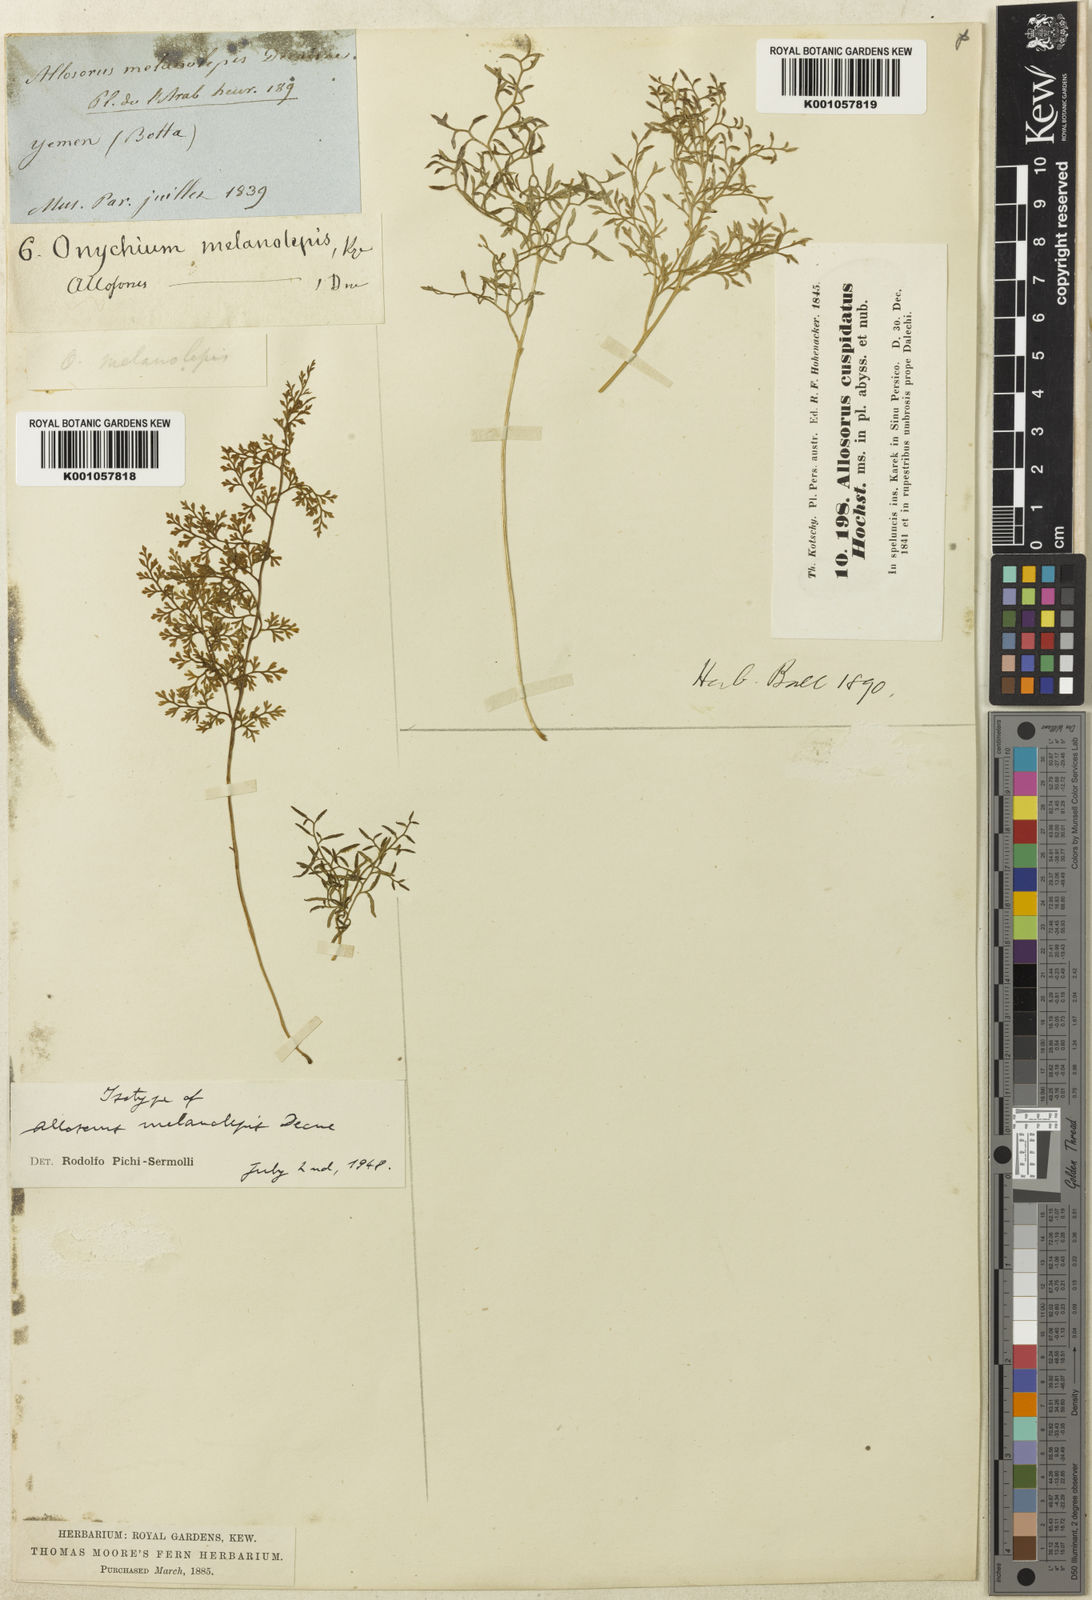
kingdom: Plantae
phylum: Tracheophyta
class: Polypodiopsida
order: Polypodiales
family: Pteridaceae
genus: Onychium
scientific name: Onychium divaricatum
